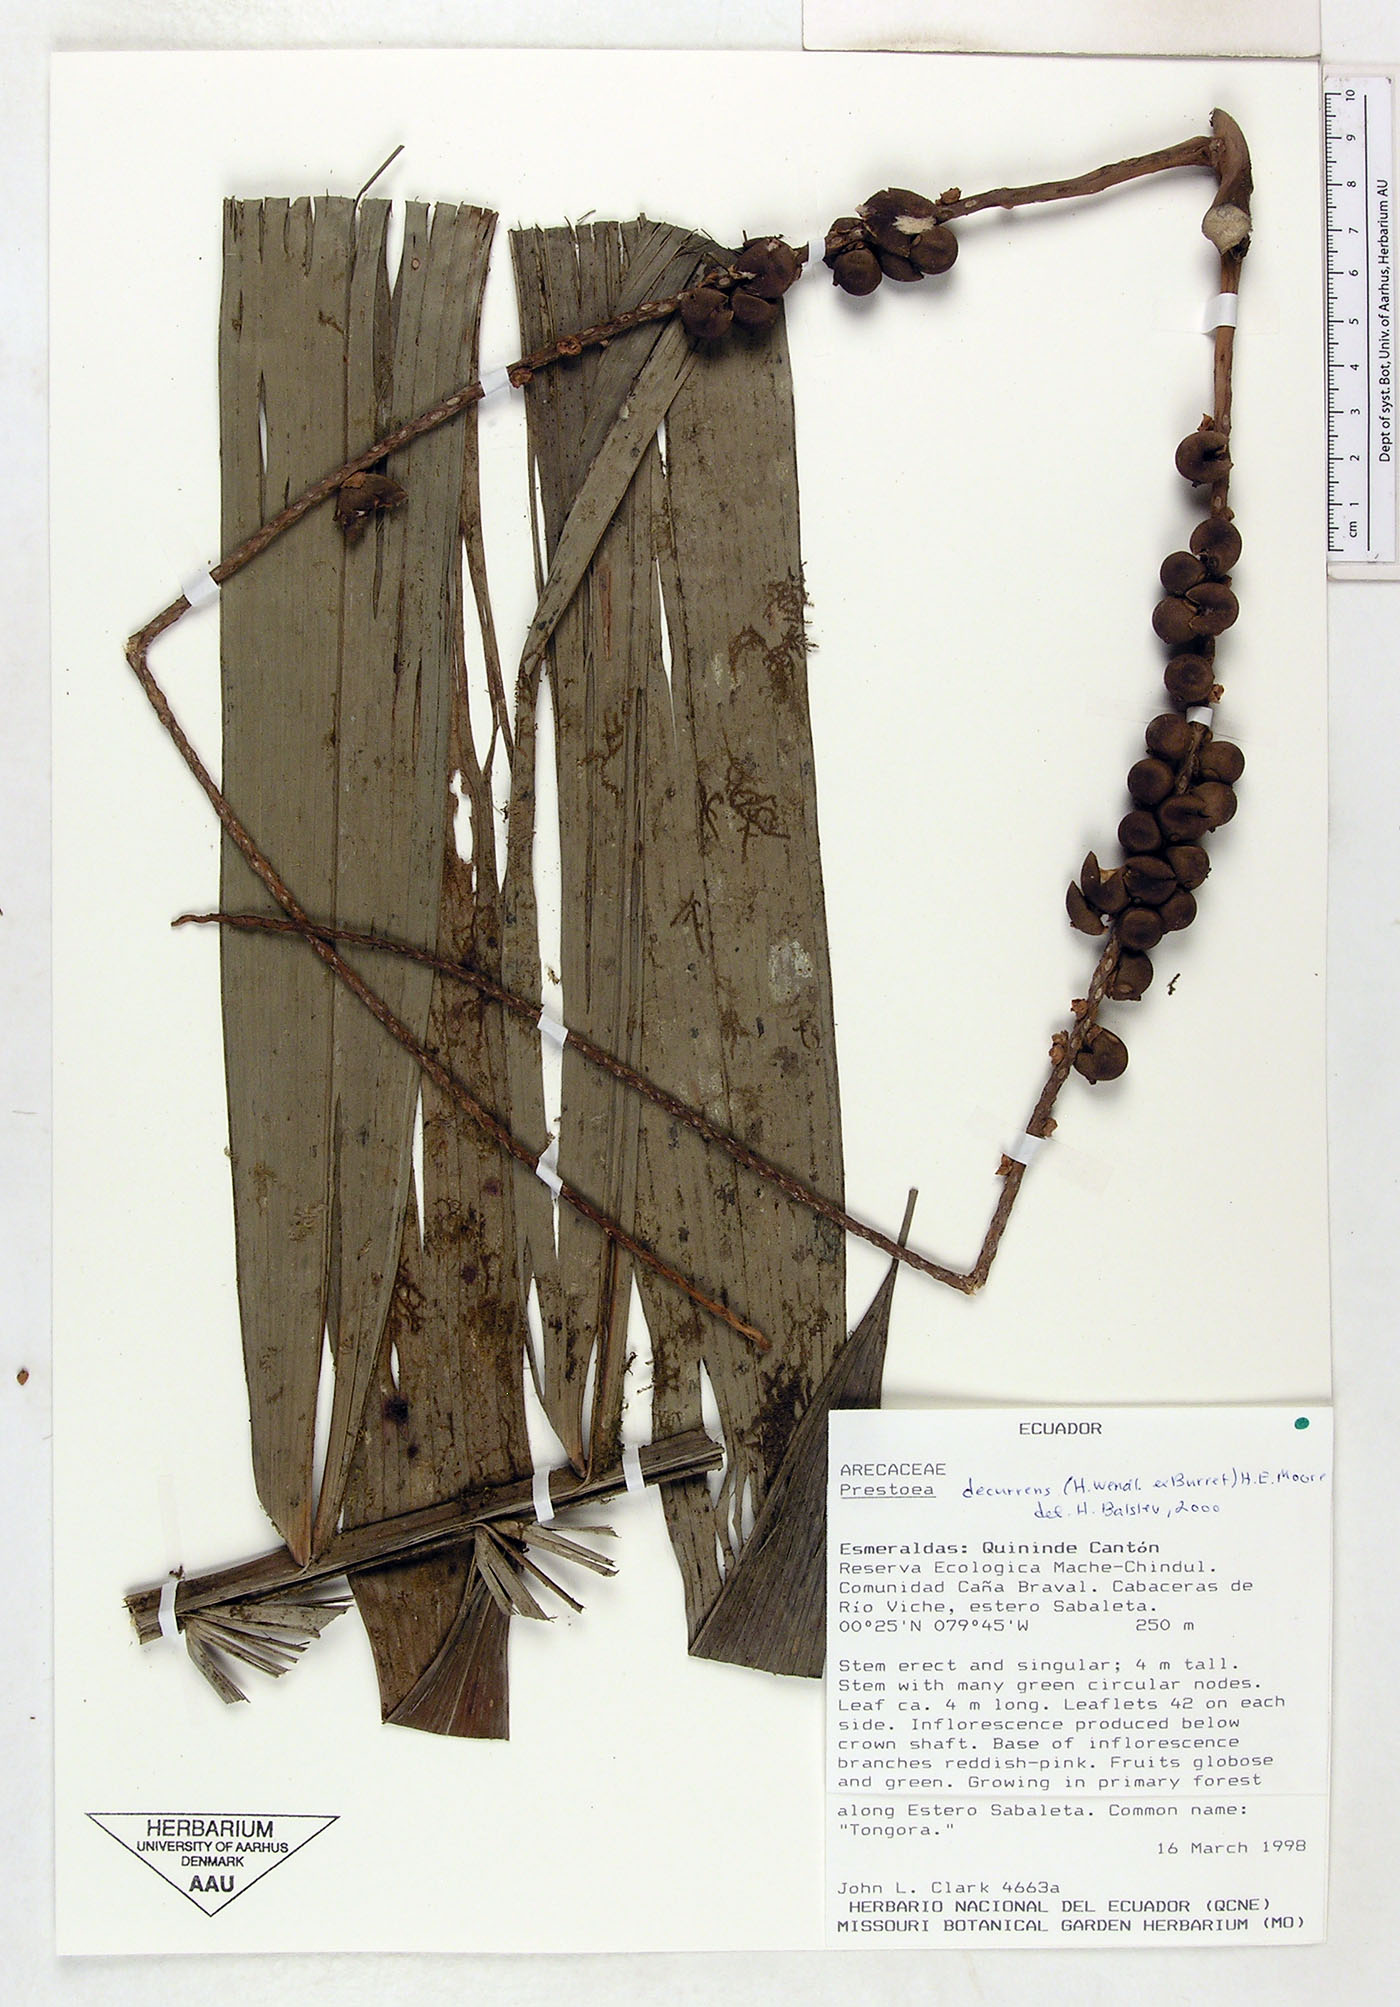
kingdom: Plantae
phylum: Tracheophyta
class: Liliopsida
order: Arecales
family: Arecaceae
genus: Prestoea
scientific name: Prestoea decurrens
